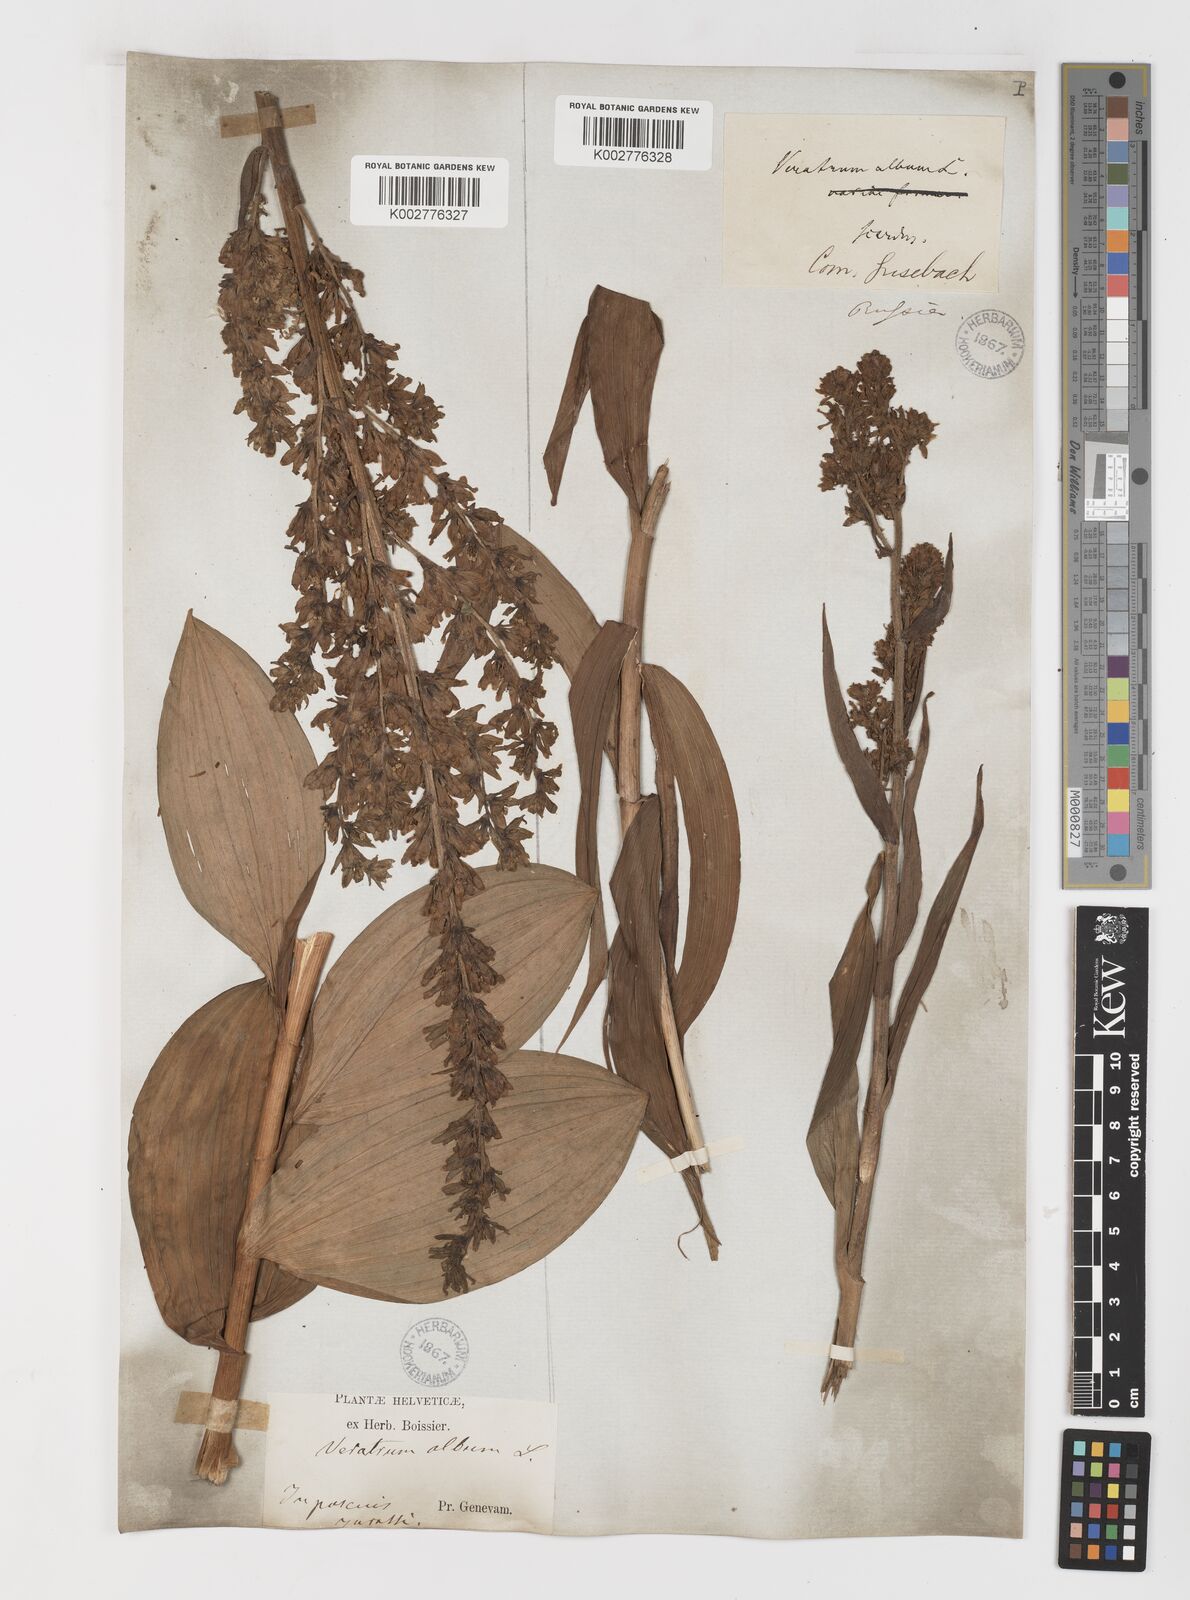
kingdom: Plantae
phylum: Tracheophyta
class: Liliopsida
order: Liliales
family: Melanthiaceae
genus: Veratrum
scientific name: Veratrum album
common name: White veratrum
